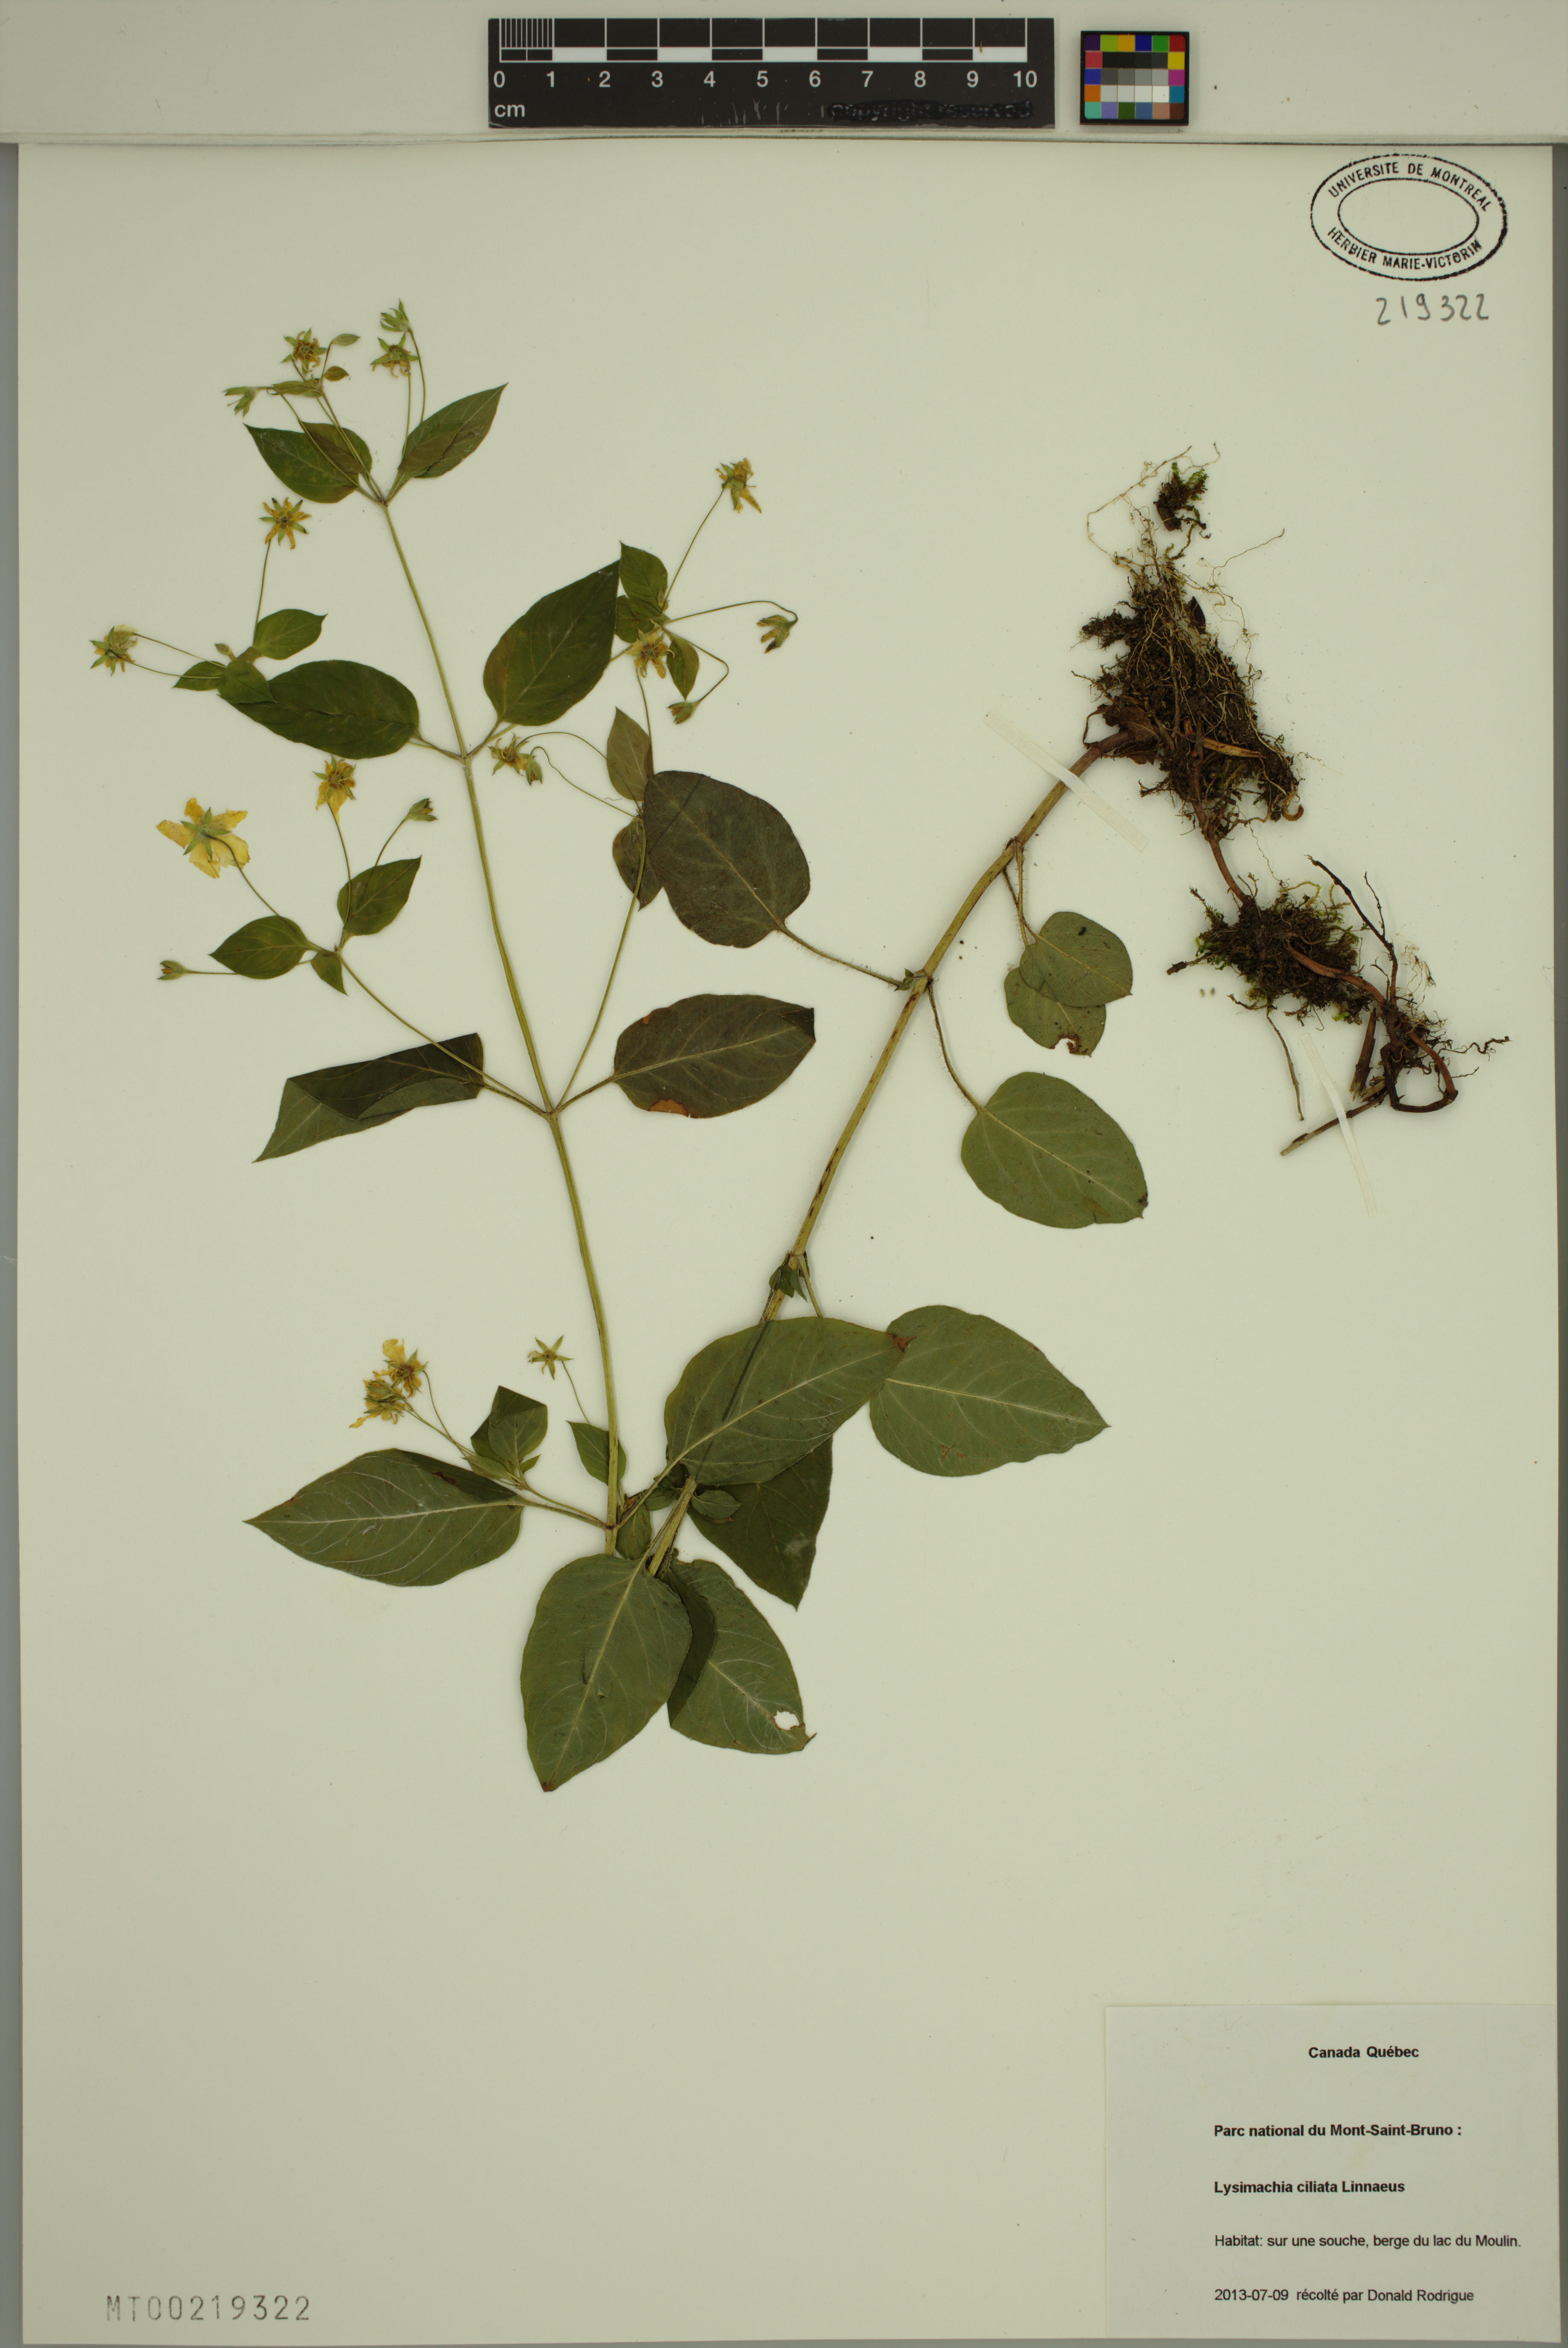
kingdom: Plantae
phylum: Tracheophyta
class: Magnoliopsida
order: Ericales
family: Primulaceae
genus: Lysimachia
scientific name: Lysimachia ciliata
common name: Fringed loosestrife
